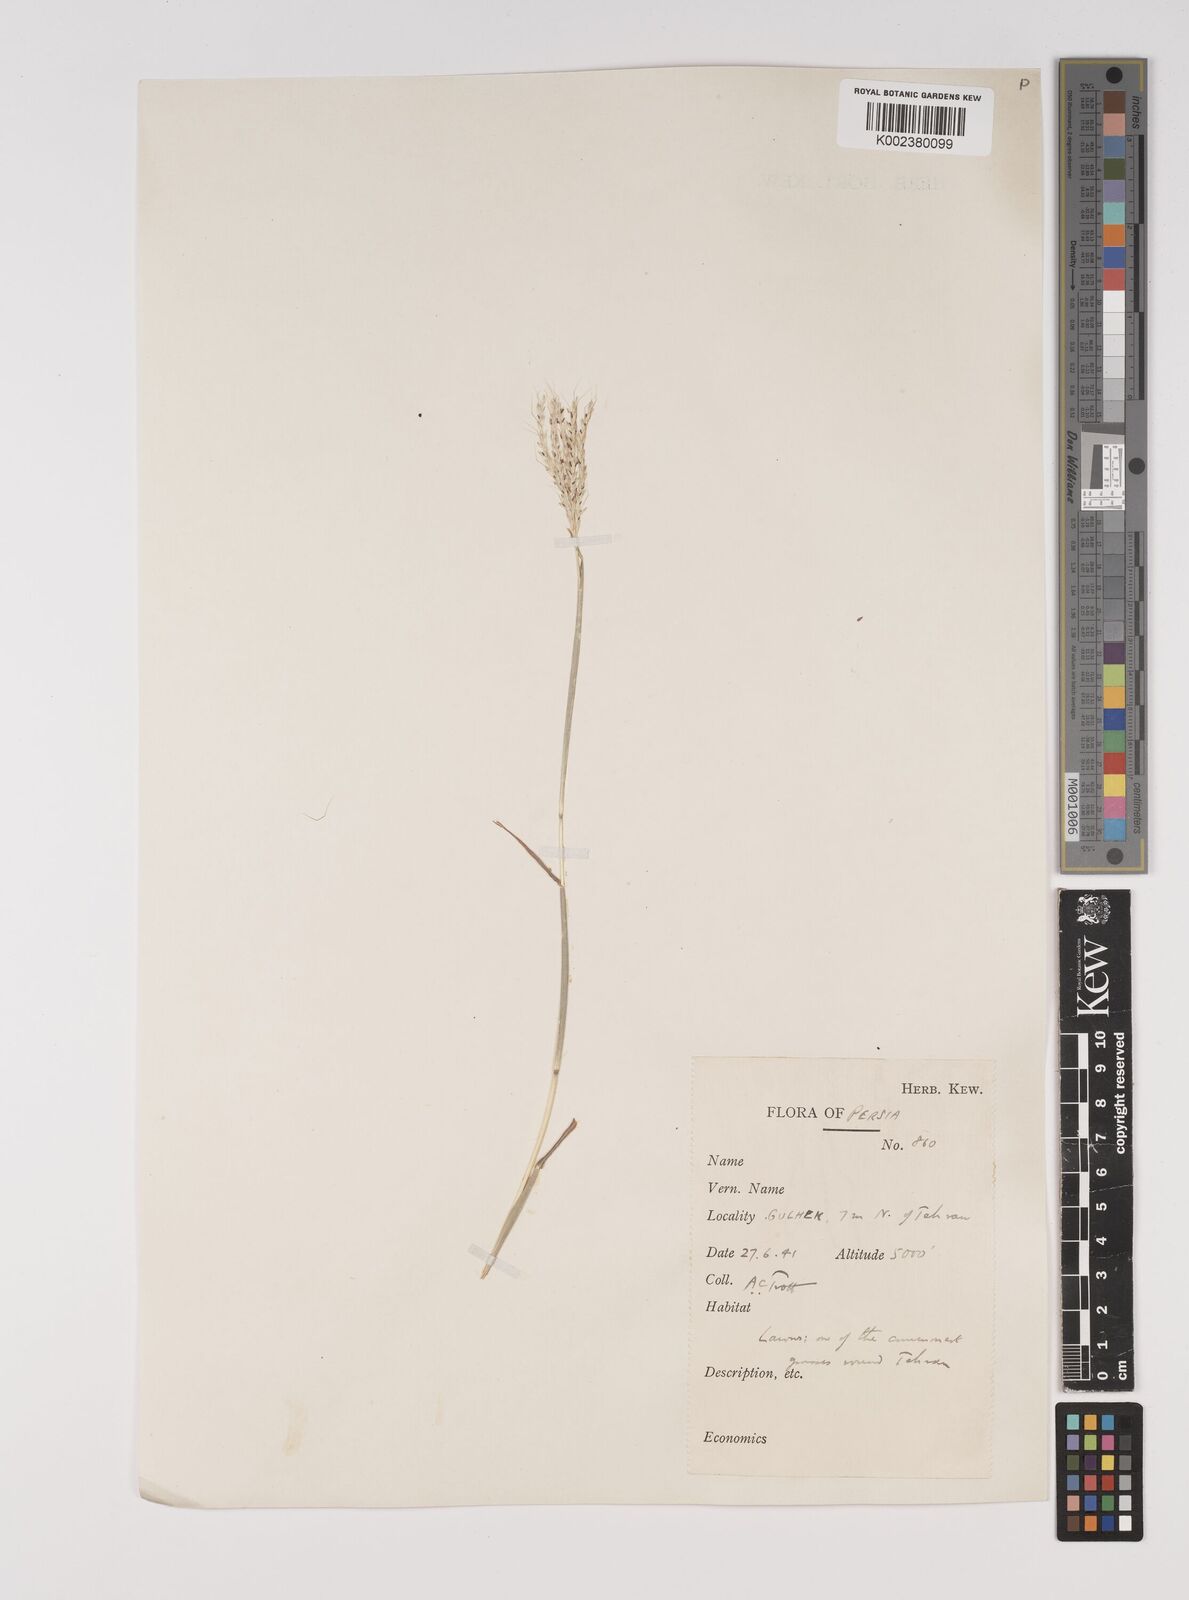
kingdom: Plantae
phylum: Tracheophyta
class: Liliopsida
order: Poales
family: Poaceae
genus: Bothriochloa
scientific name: Bothriochloa ischaemum
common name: Yellow bluestem
